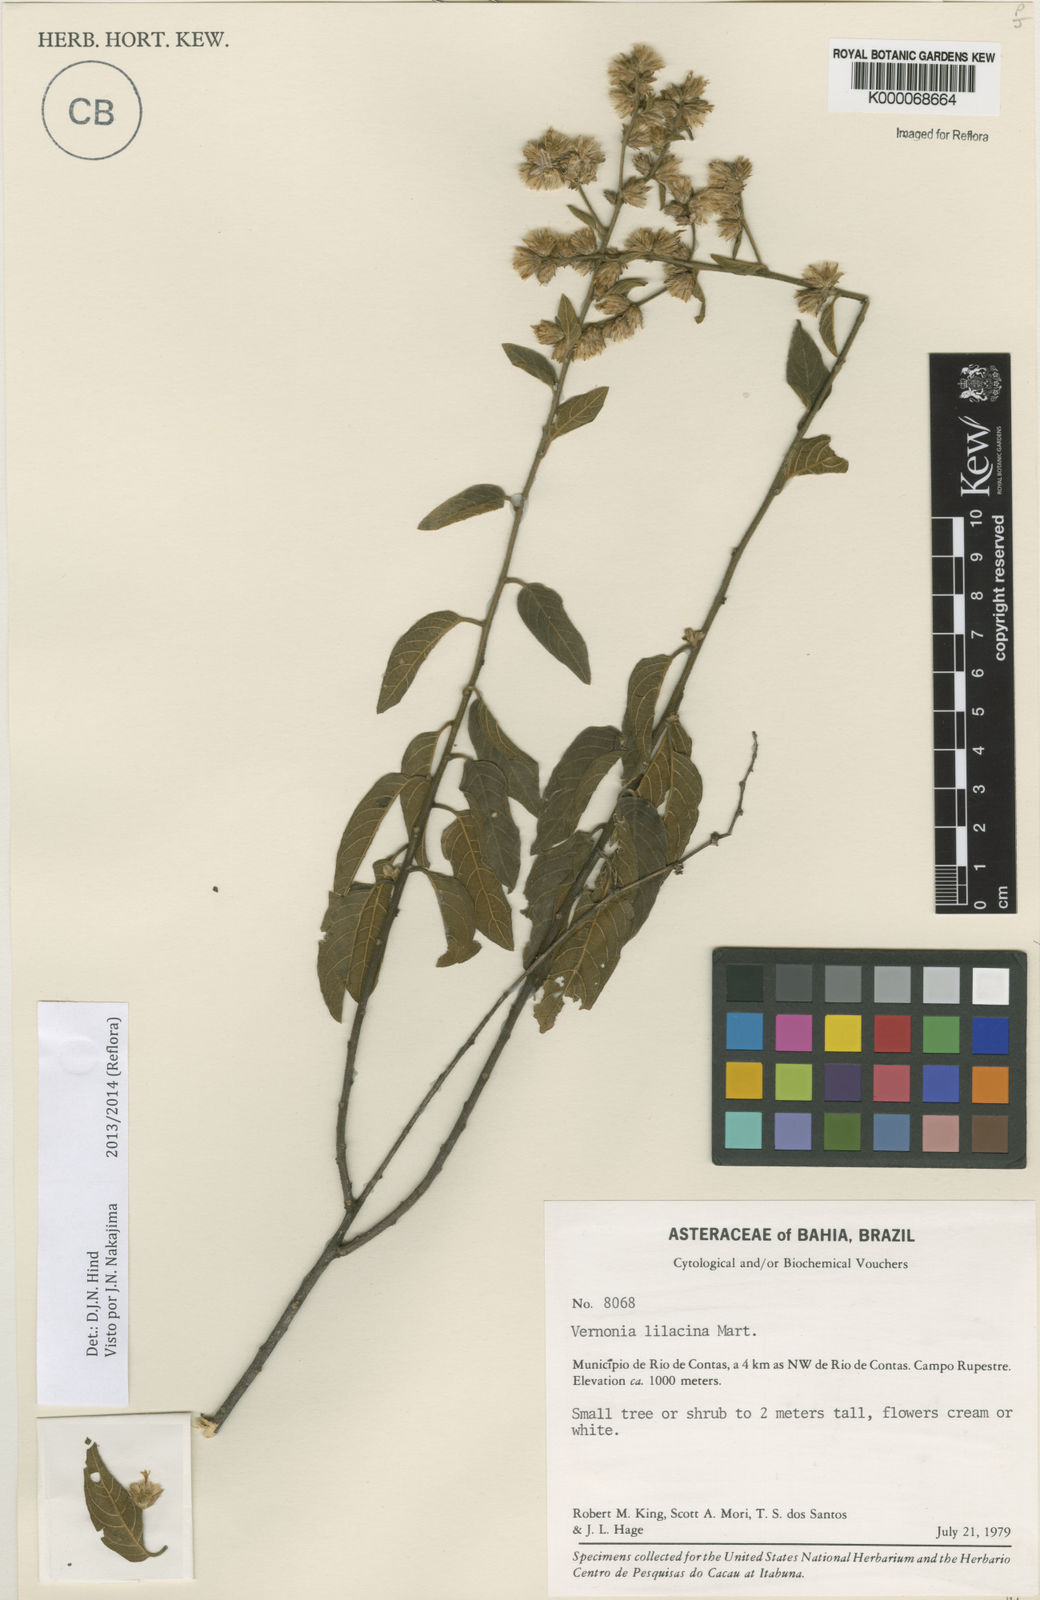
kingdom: Plantae
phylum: Tracheophyta
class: Magnoliopsida
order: Asterales
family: Asteraceae
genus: Lepidaploa
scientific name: Lepidaploa lilacina
